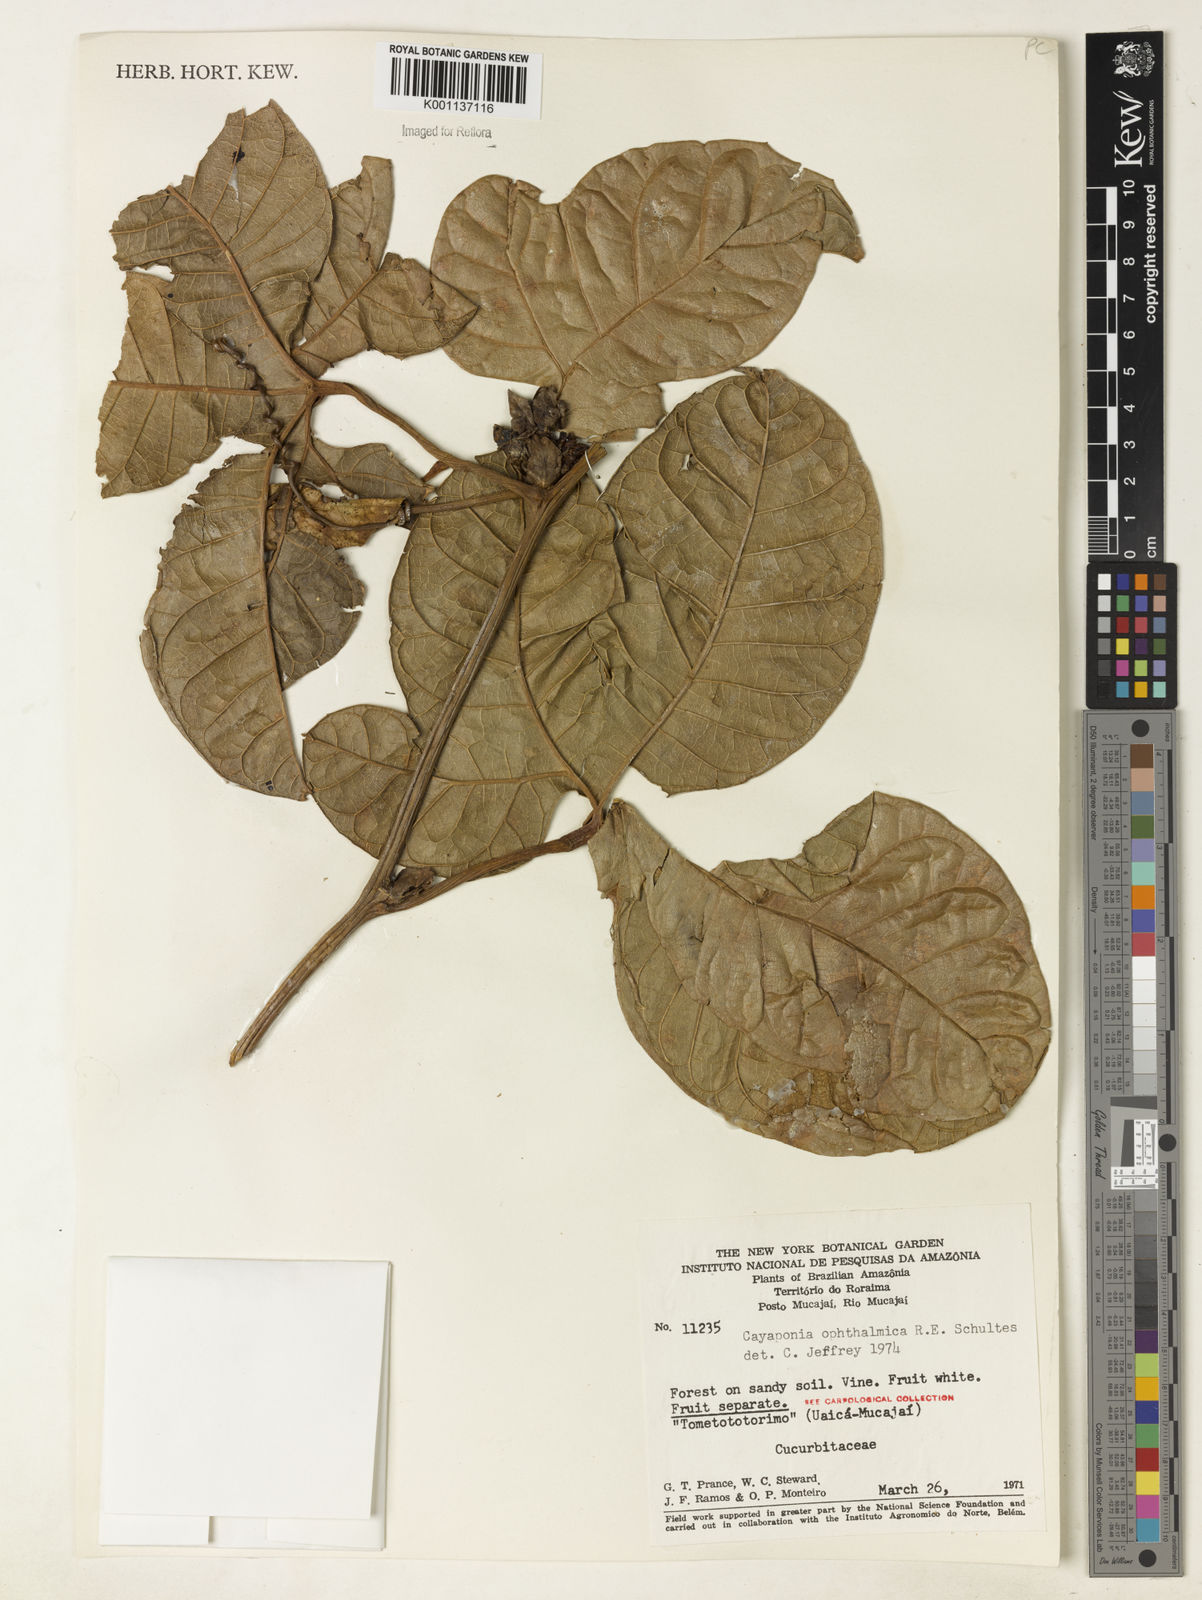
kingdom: Plantae
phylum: Tracheophyta
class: Magnoliopsida
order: Cucurbitales
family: Cucurbitaceae
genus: Cayaponia
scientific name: Cayaponia ophthalmica
